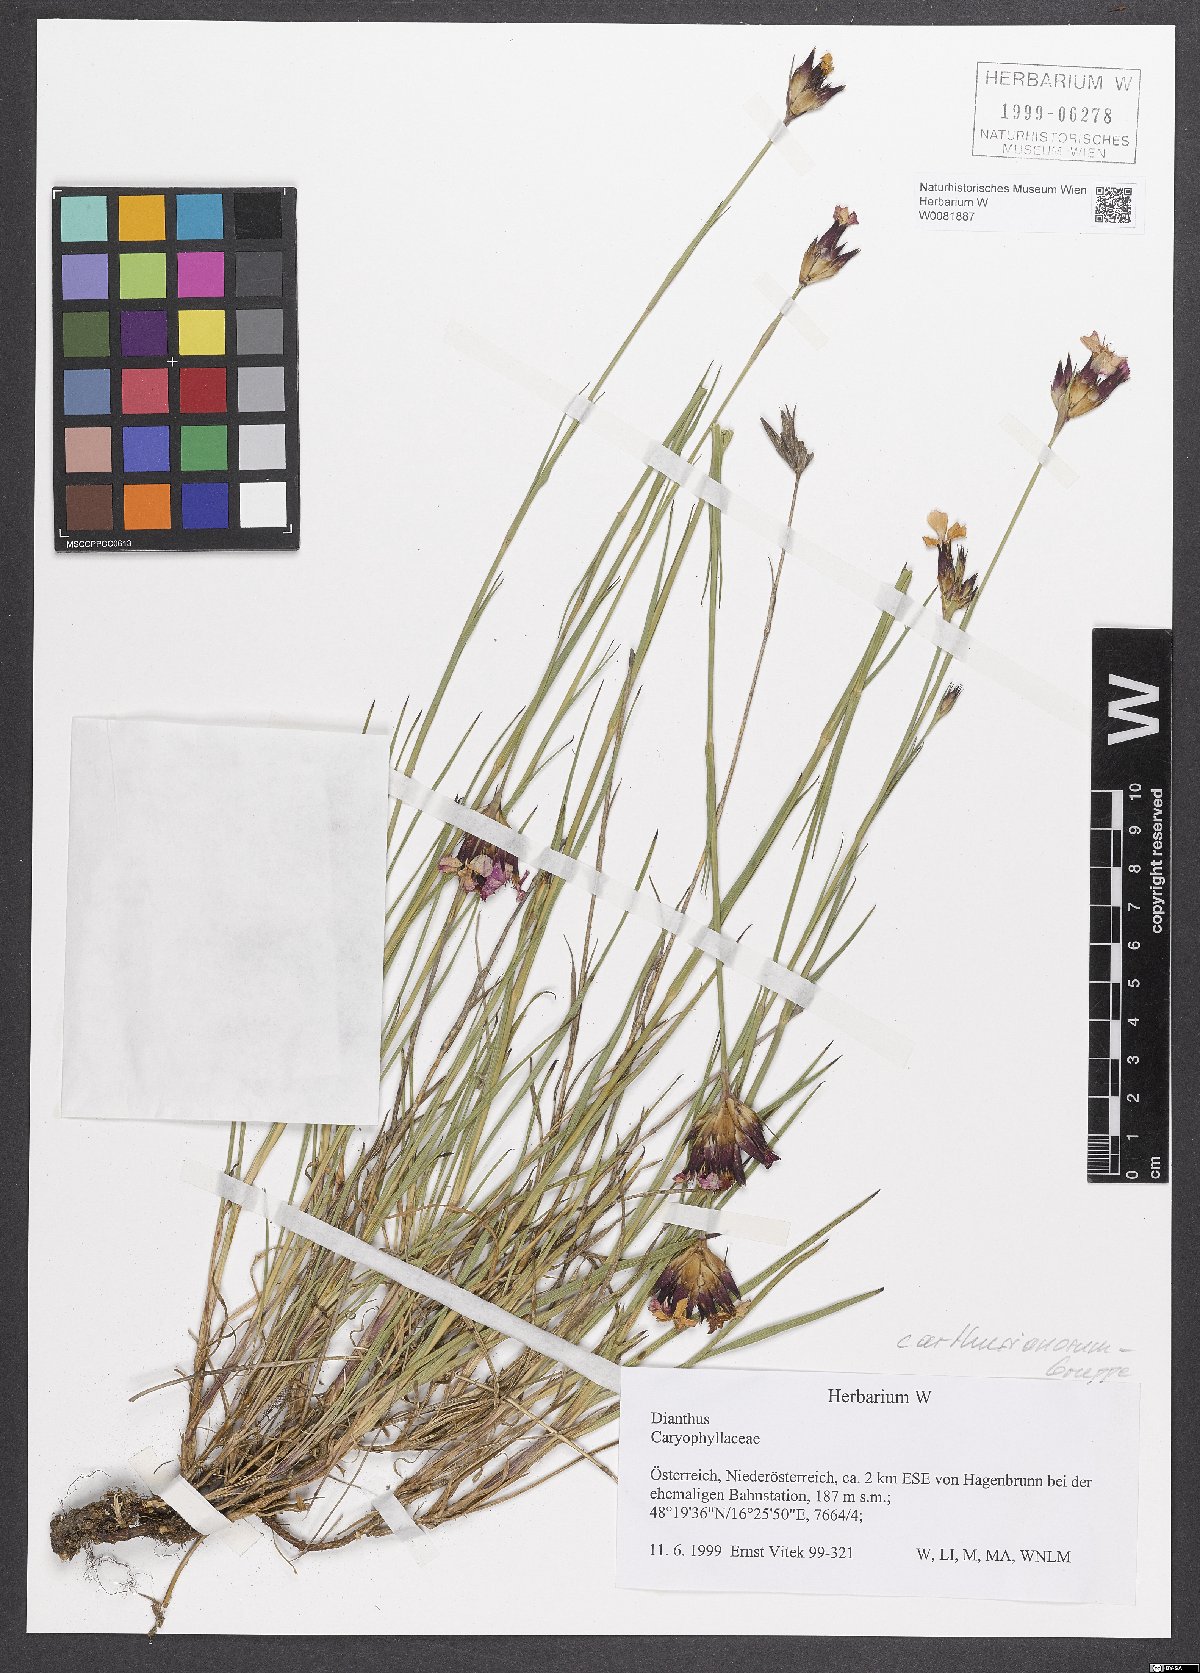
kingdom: Plantae
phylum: Tracheophyta
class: Magnoliopsida
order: Caryophyllales
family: Caryophyllaceae
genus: Dianthus
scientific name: Dianthus carthusianorum
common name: Carthusian pink
